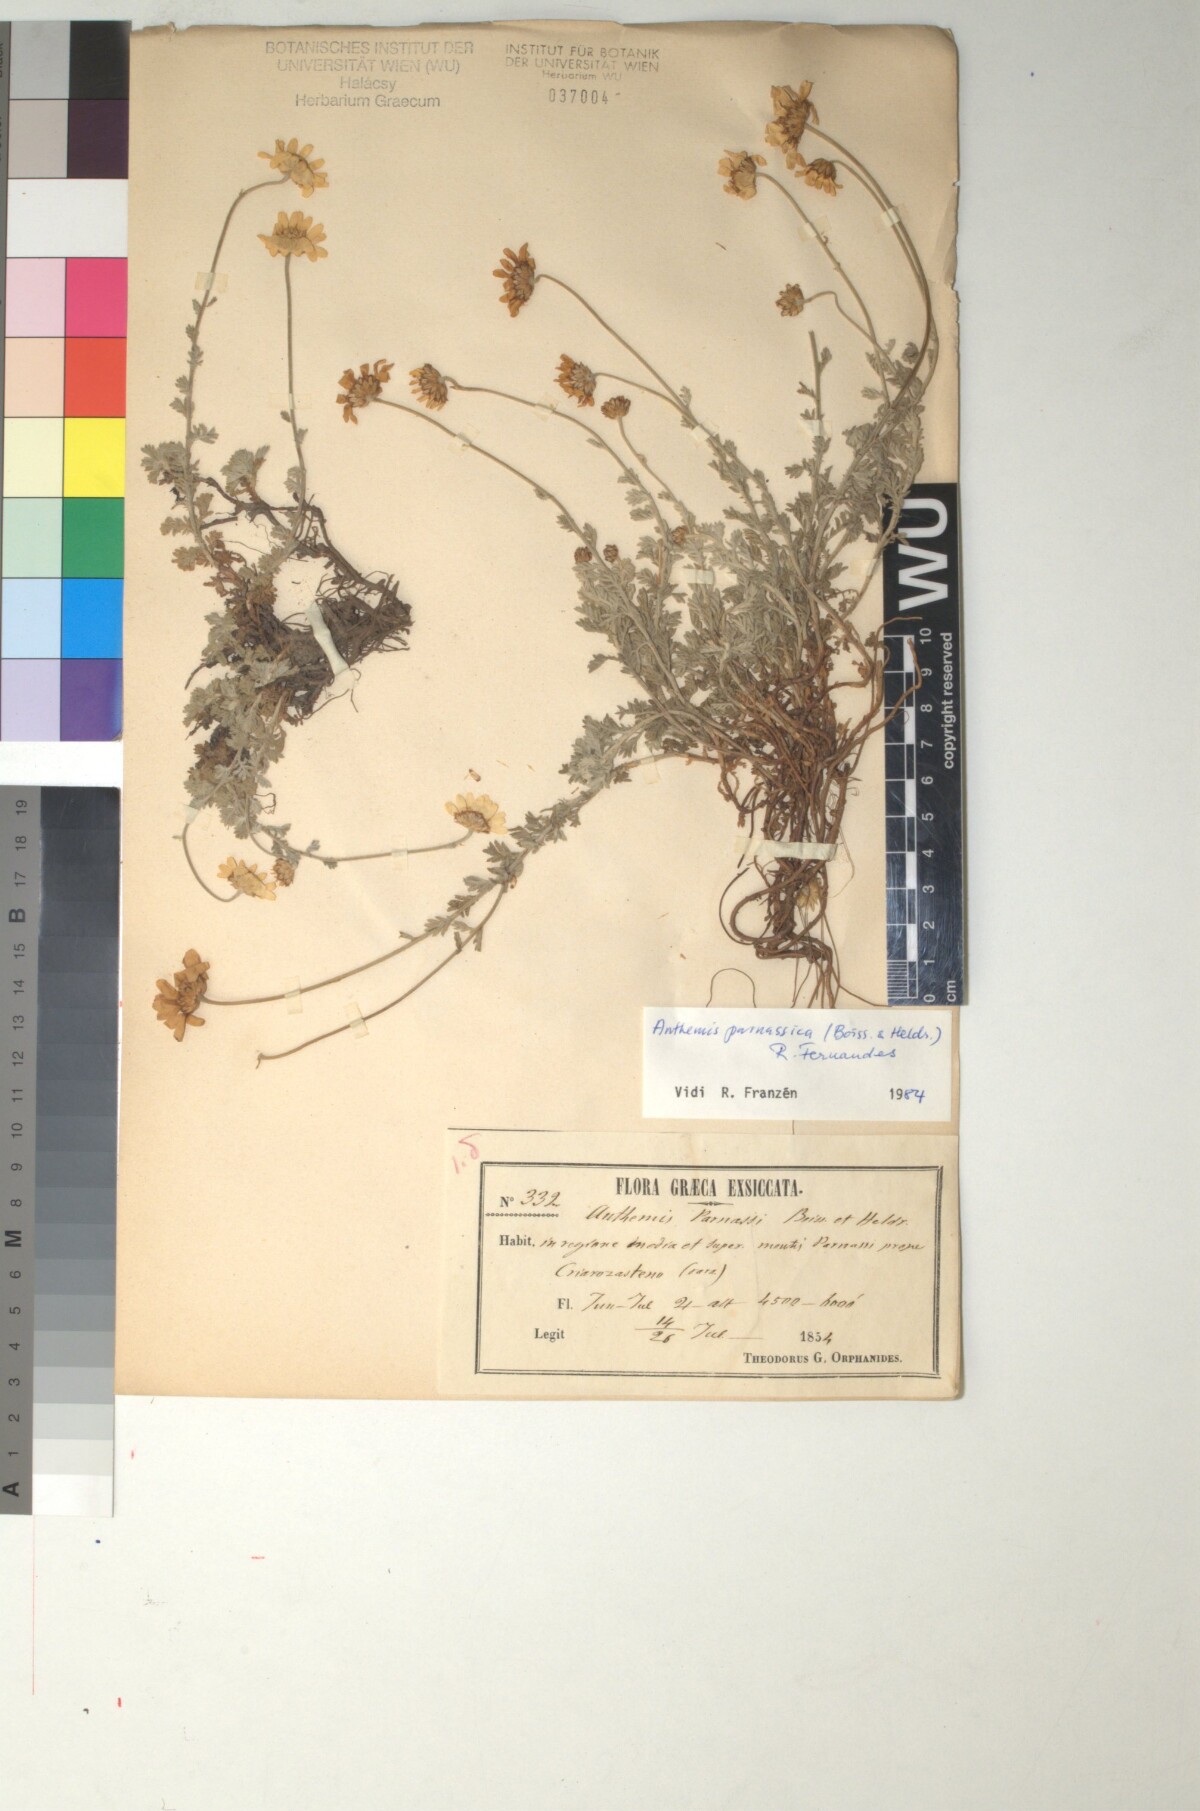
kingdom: Plantae
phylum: Tracheophyta
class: Magnoliopsida
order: Asterales
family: Asteraceae
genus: Cota
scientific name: Cota tinctoria
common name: Golden chamomile
